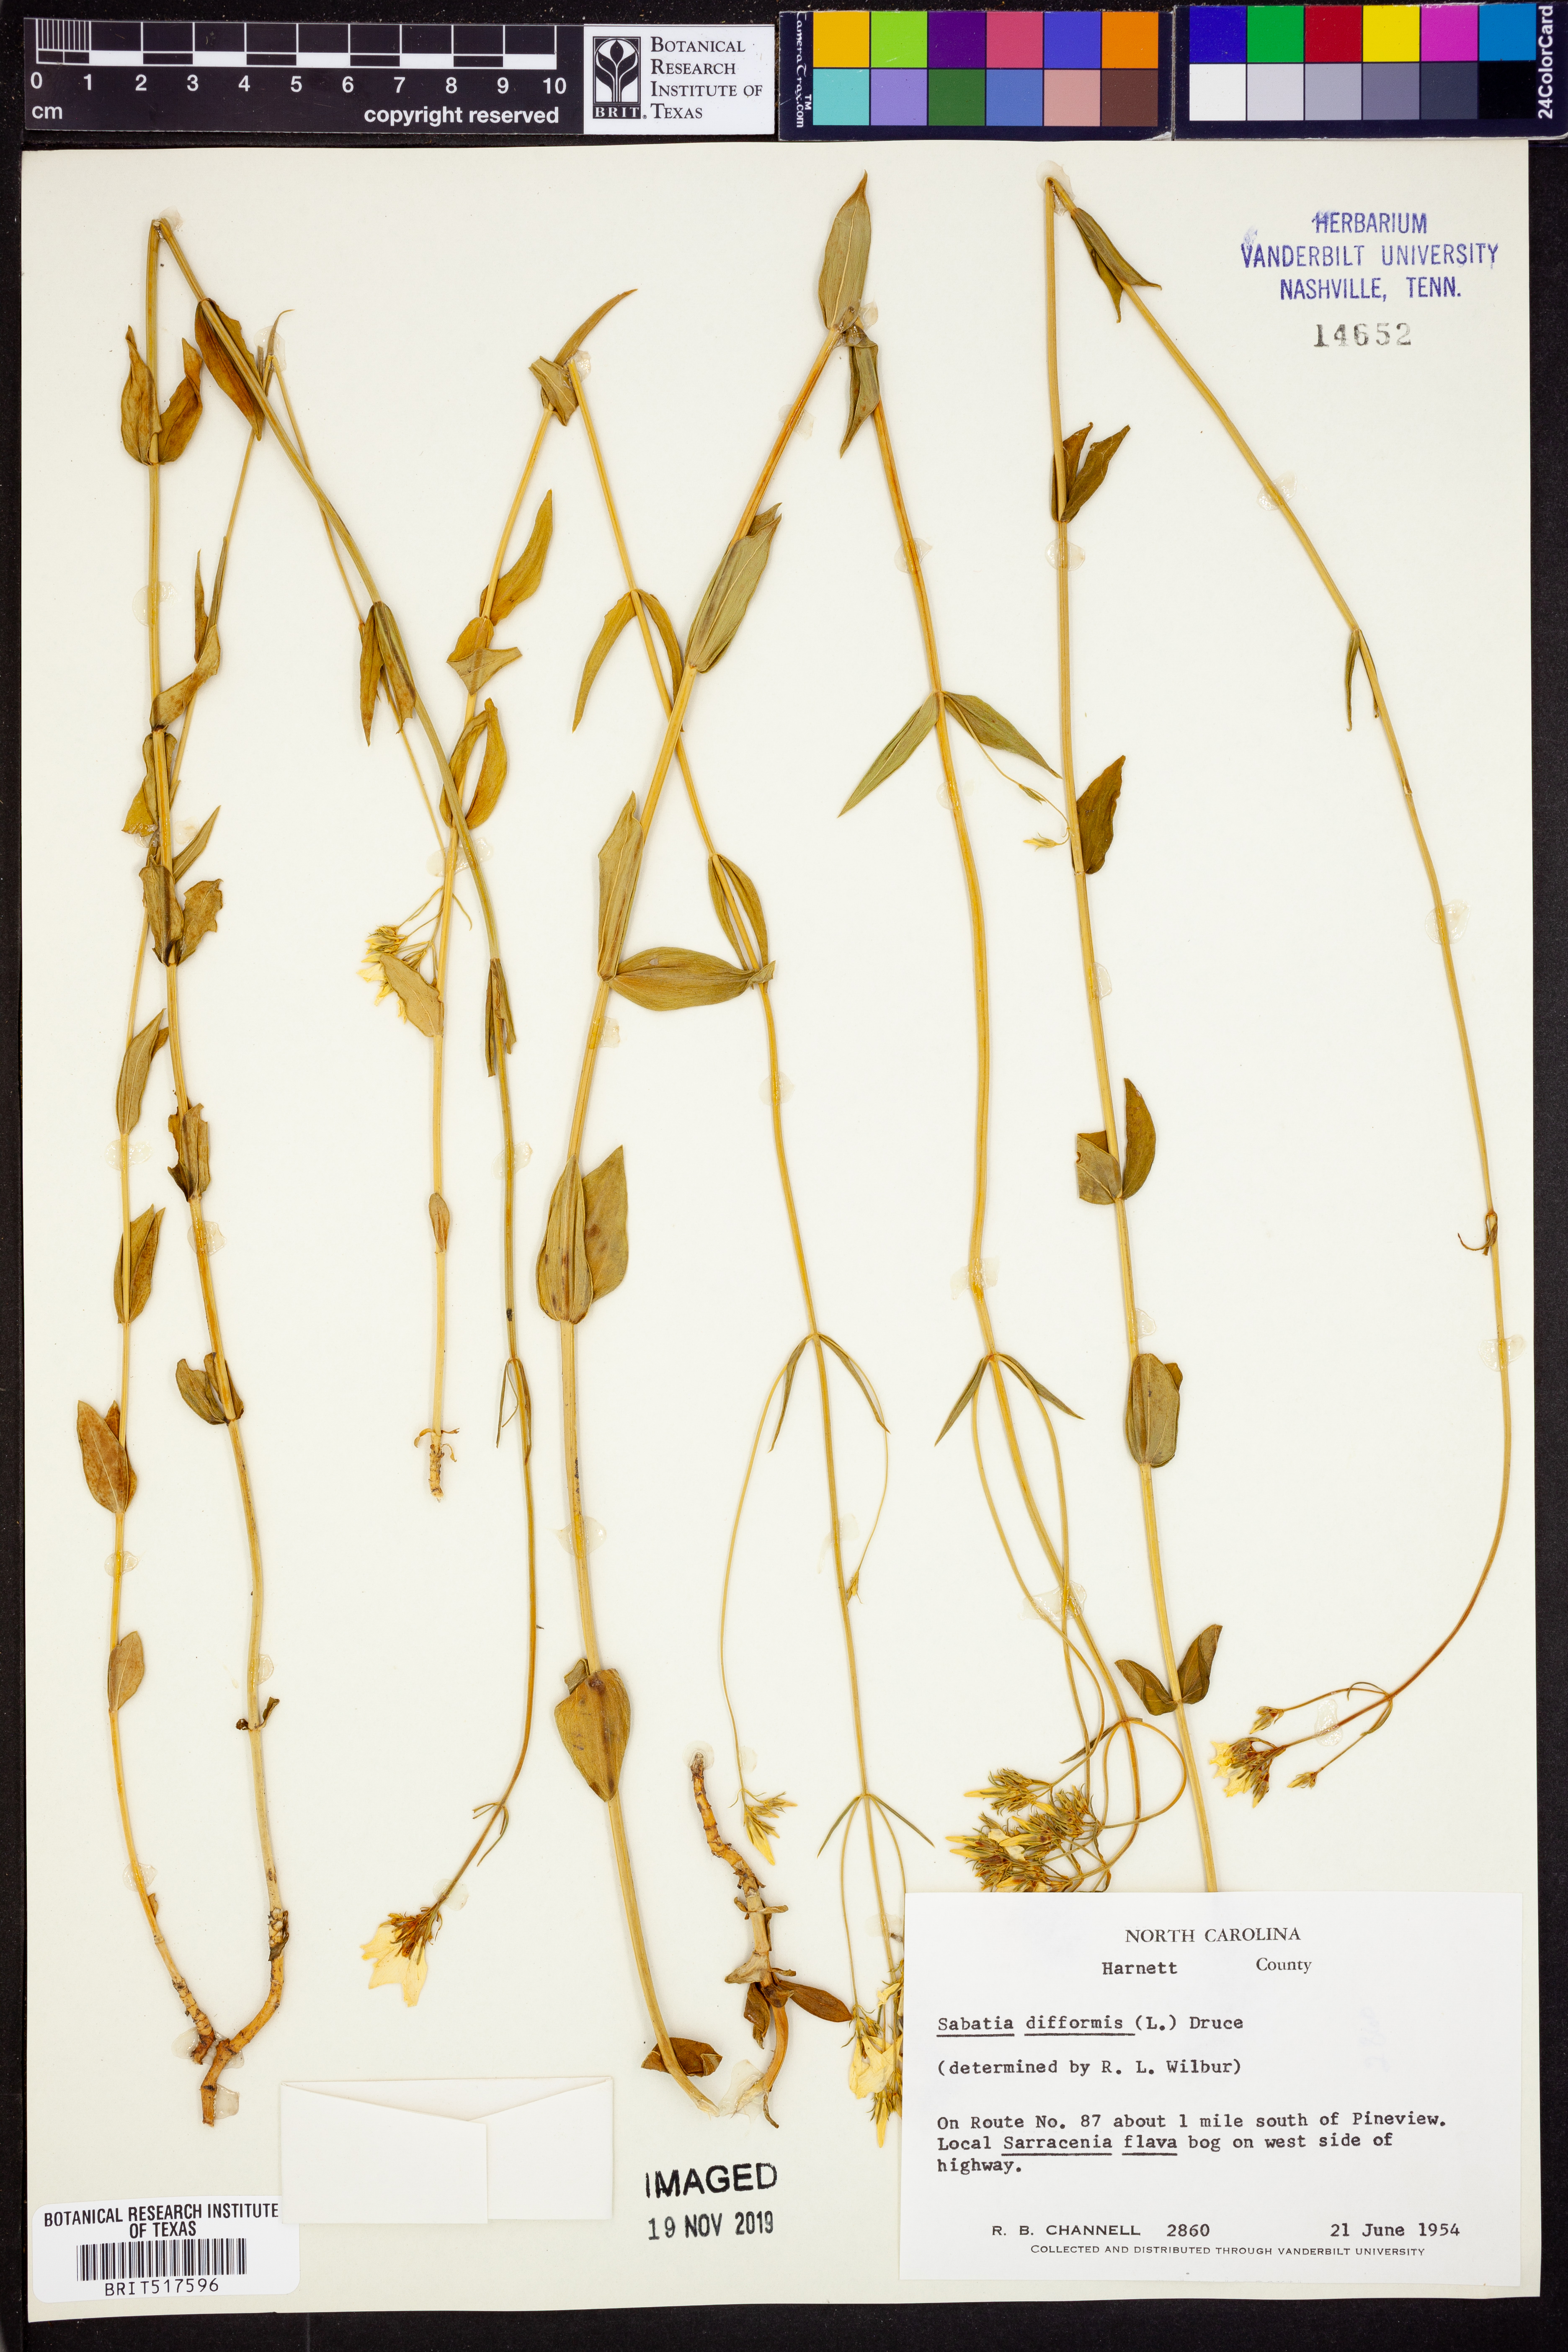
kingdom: Plantae
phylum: Tracheophyta
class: Magnoliopsida
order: Gentianales
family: Gentianaceae
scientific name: Gentianaceae
